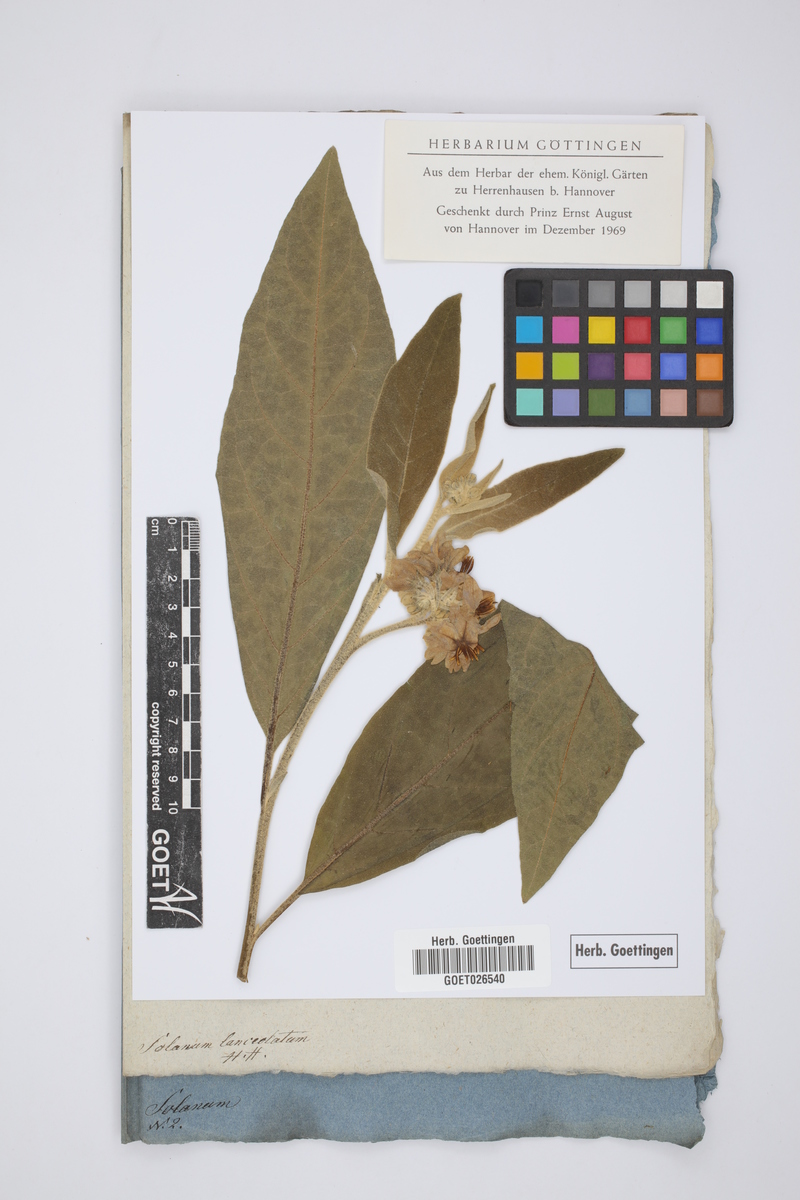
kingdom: Plantae
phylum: Tracheophyta
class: Magnoliopsida
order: Solanales
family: Solanaceae
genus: Solanum
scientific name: Solanum lanceolatum
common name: Orangeberry nightshade
